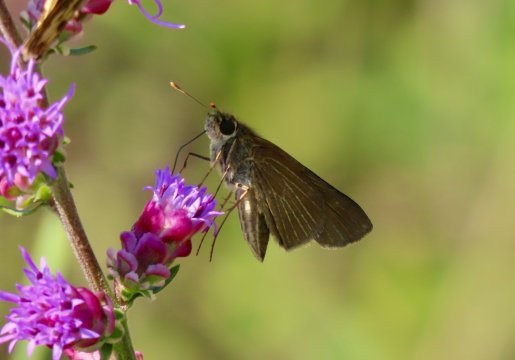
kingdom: Animalia
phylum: Arthropoda
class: Insecta
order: Lepidoptera
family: Hesperiidae
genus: Panoquina
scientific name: Panoquina ocola
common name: Ocola Skipper
